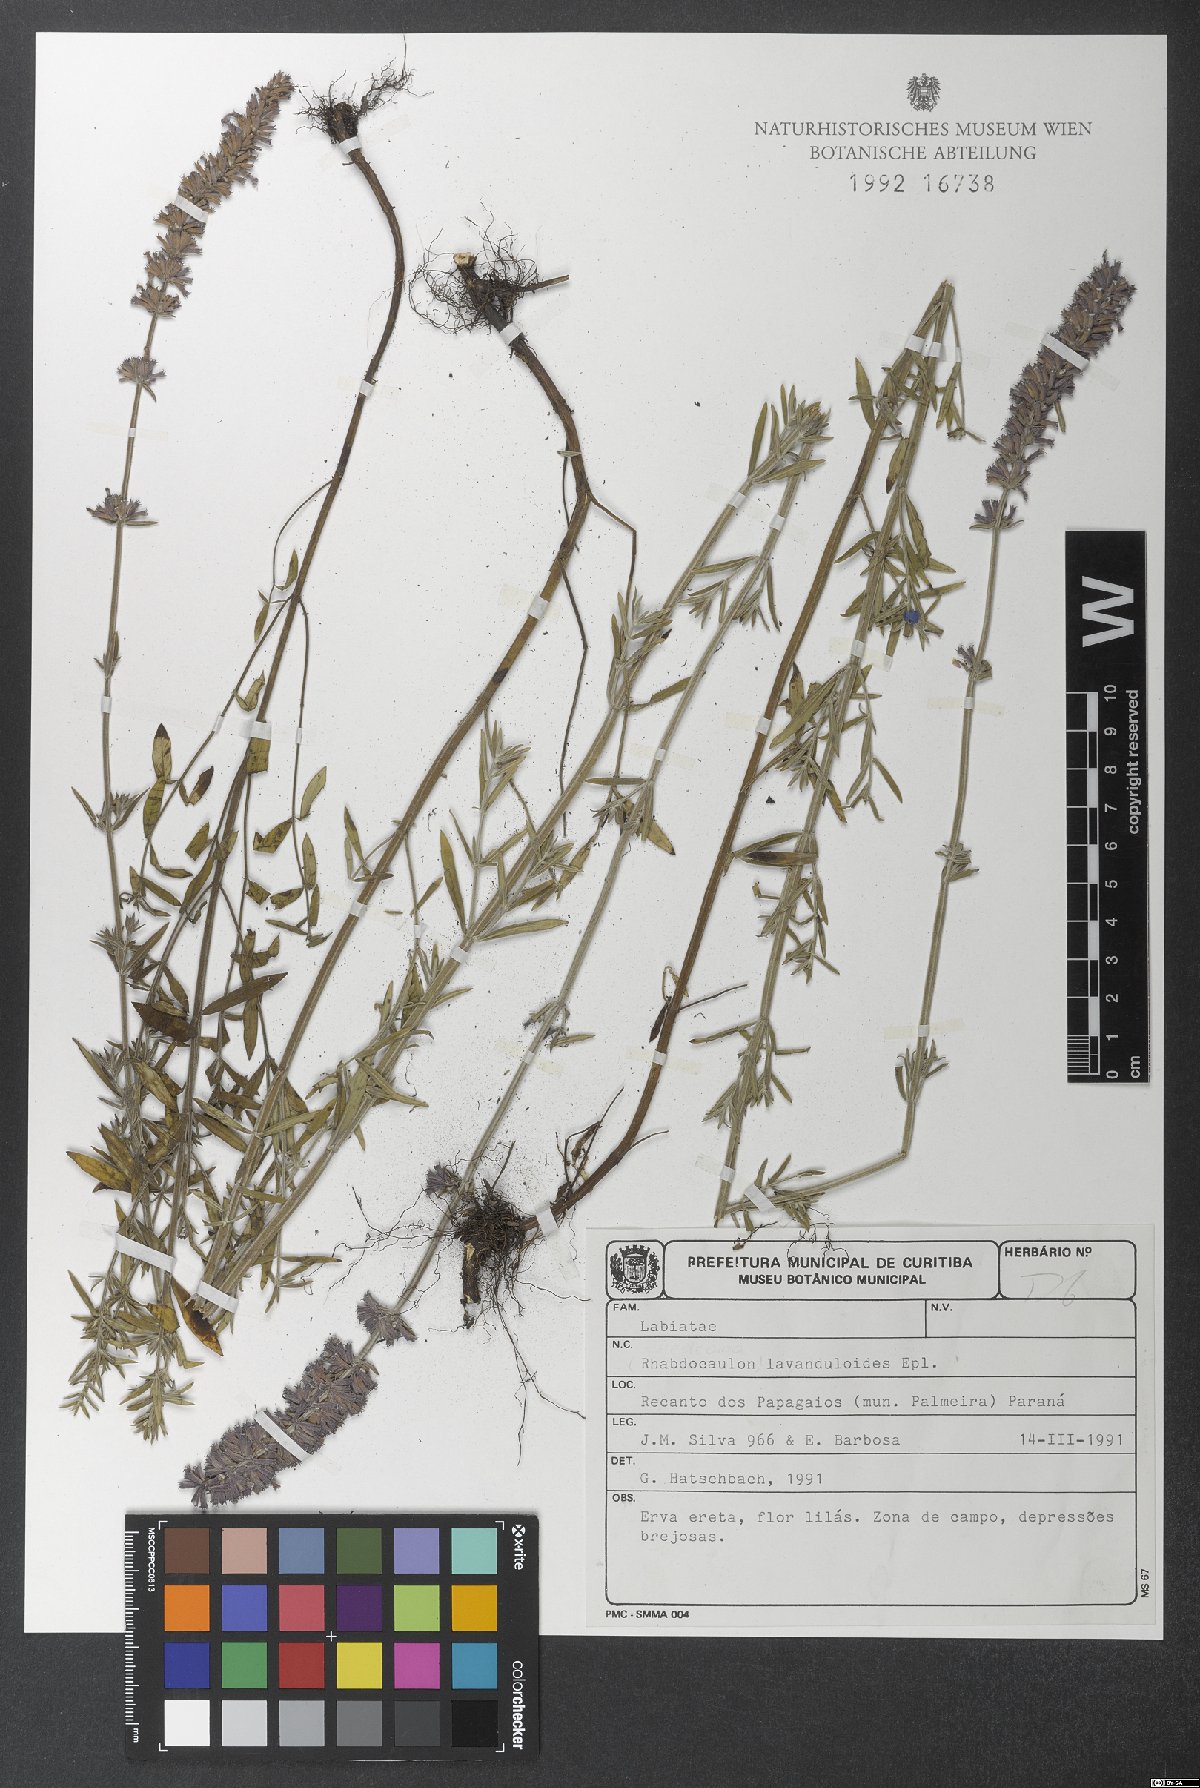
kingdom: Plantae
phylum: Tracheophyta
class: Magnoliopsida
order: Lamiales
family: Lamiaceae
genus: Rhabdocaulon
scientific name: Rhabdocaulon lavanduloides
